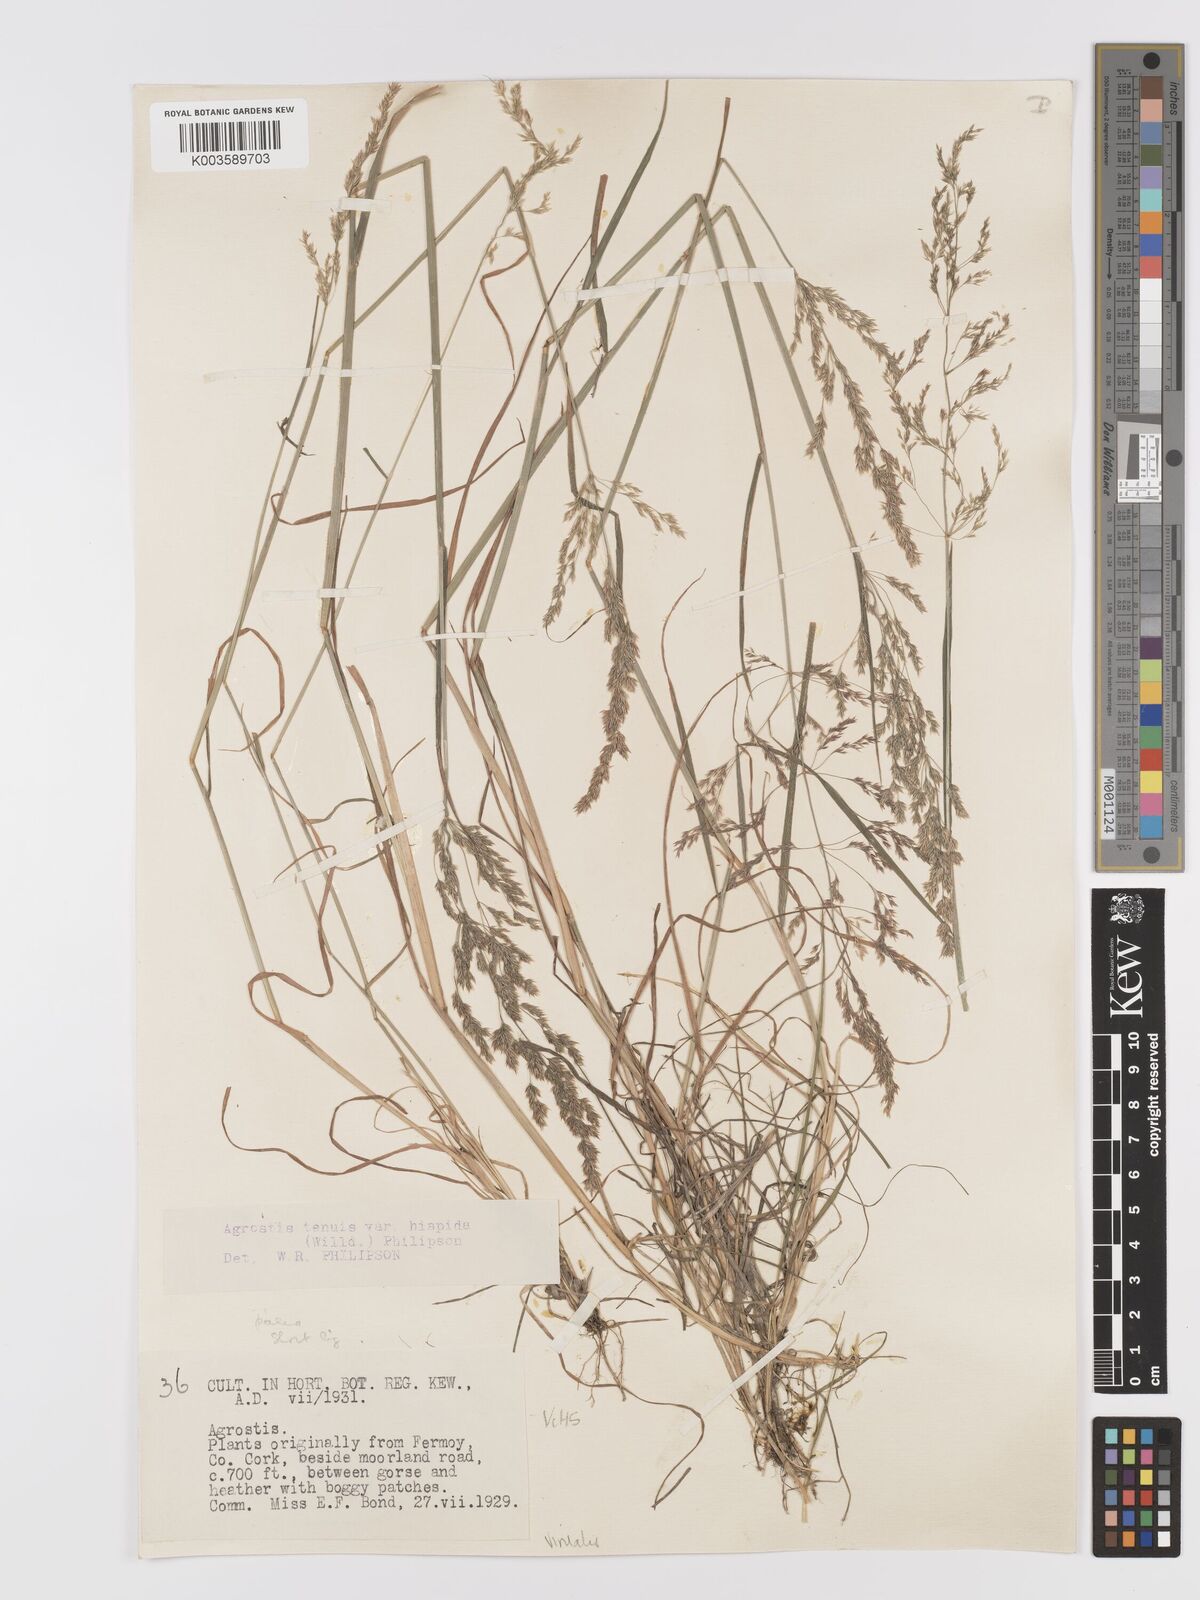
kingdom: Plantae
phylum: Tracheophyta
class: Liliopsida
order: Poales
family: Poaceae
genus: Agrostis
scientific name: Agrostis
